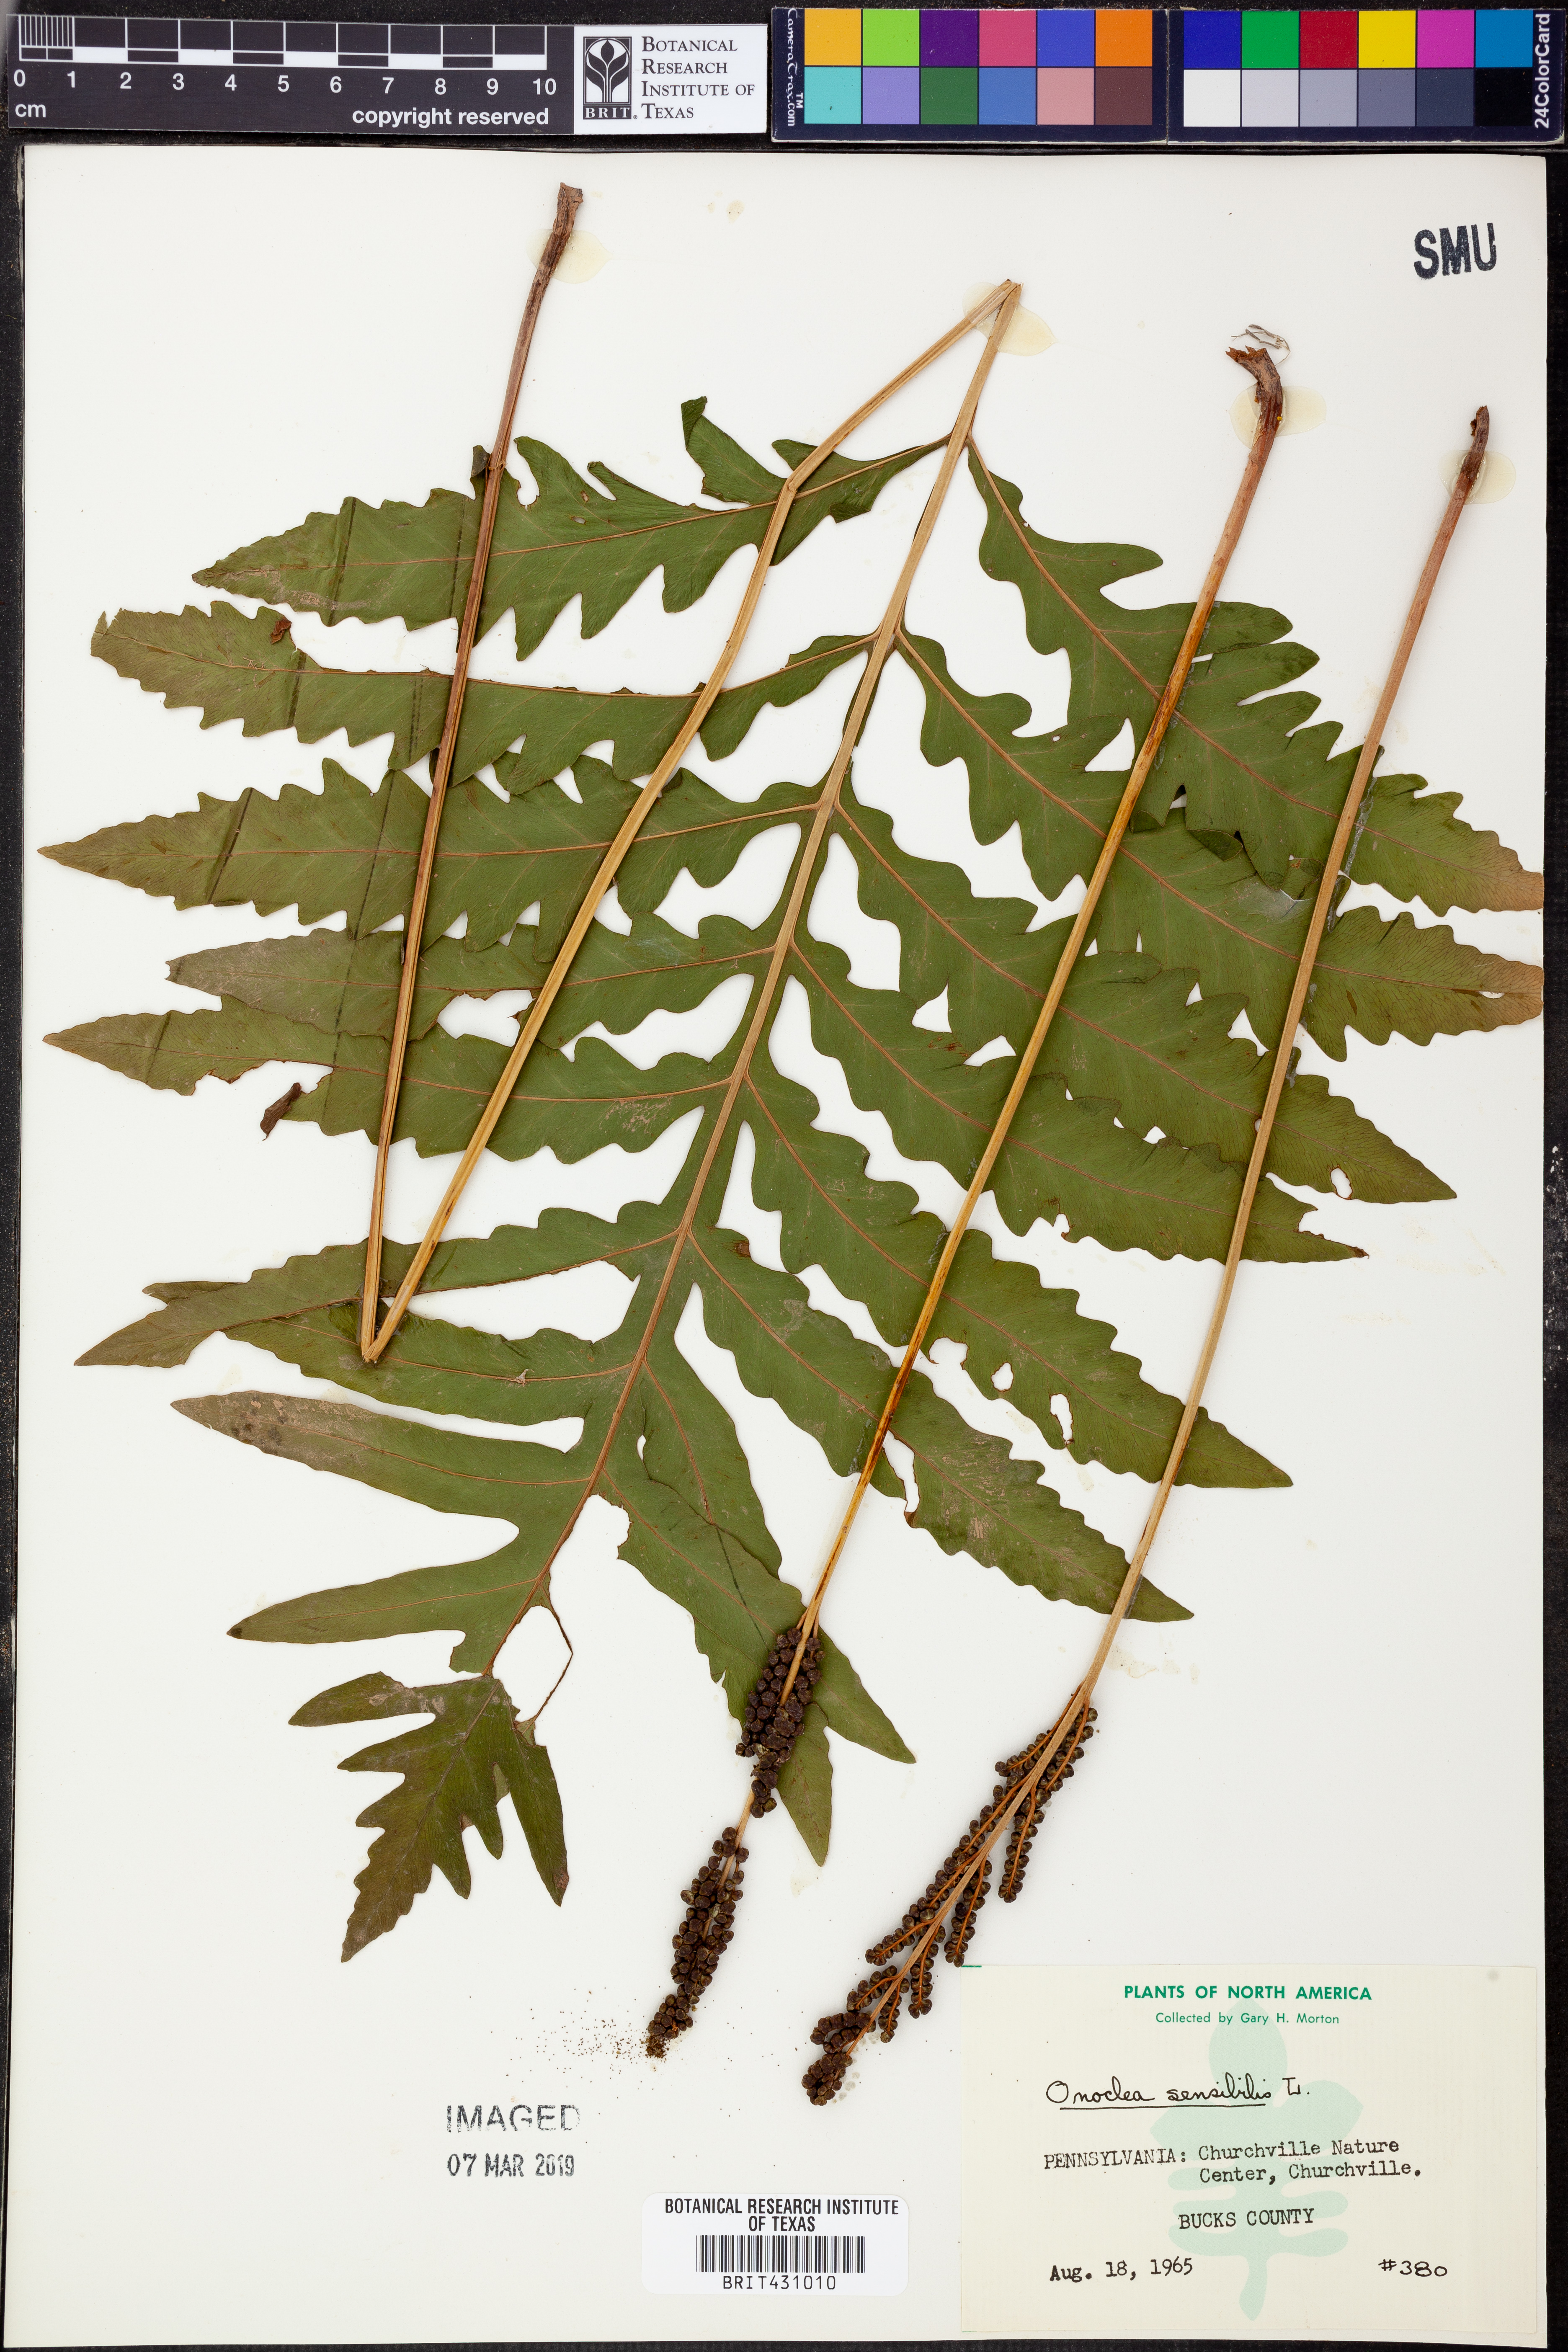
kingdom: Plantae
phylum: Tracheophyta
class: Polypodiopsida
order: Polypodiales
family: Onocleaceae
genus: Onoclea
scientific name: Onoclea sensibilis
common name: Sensitive fern
